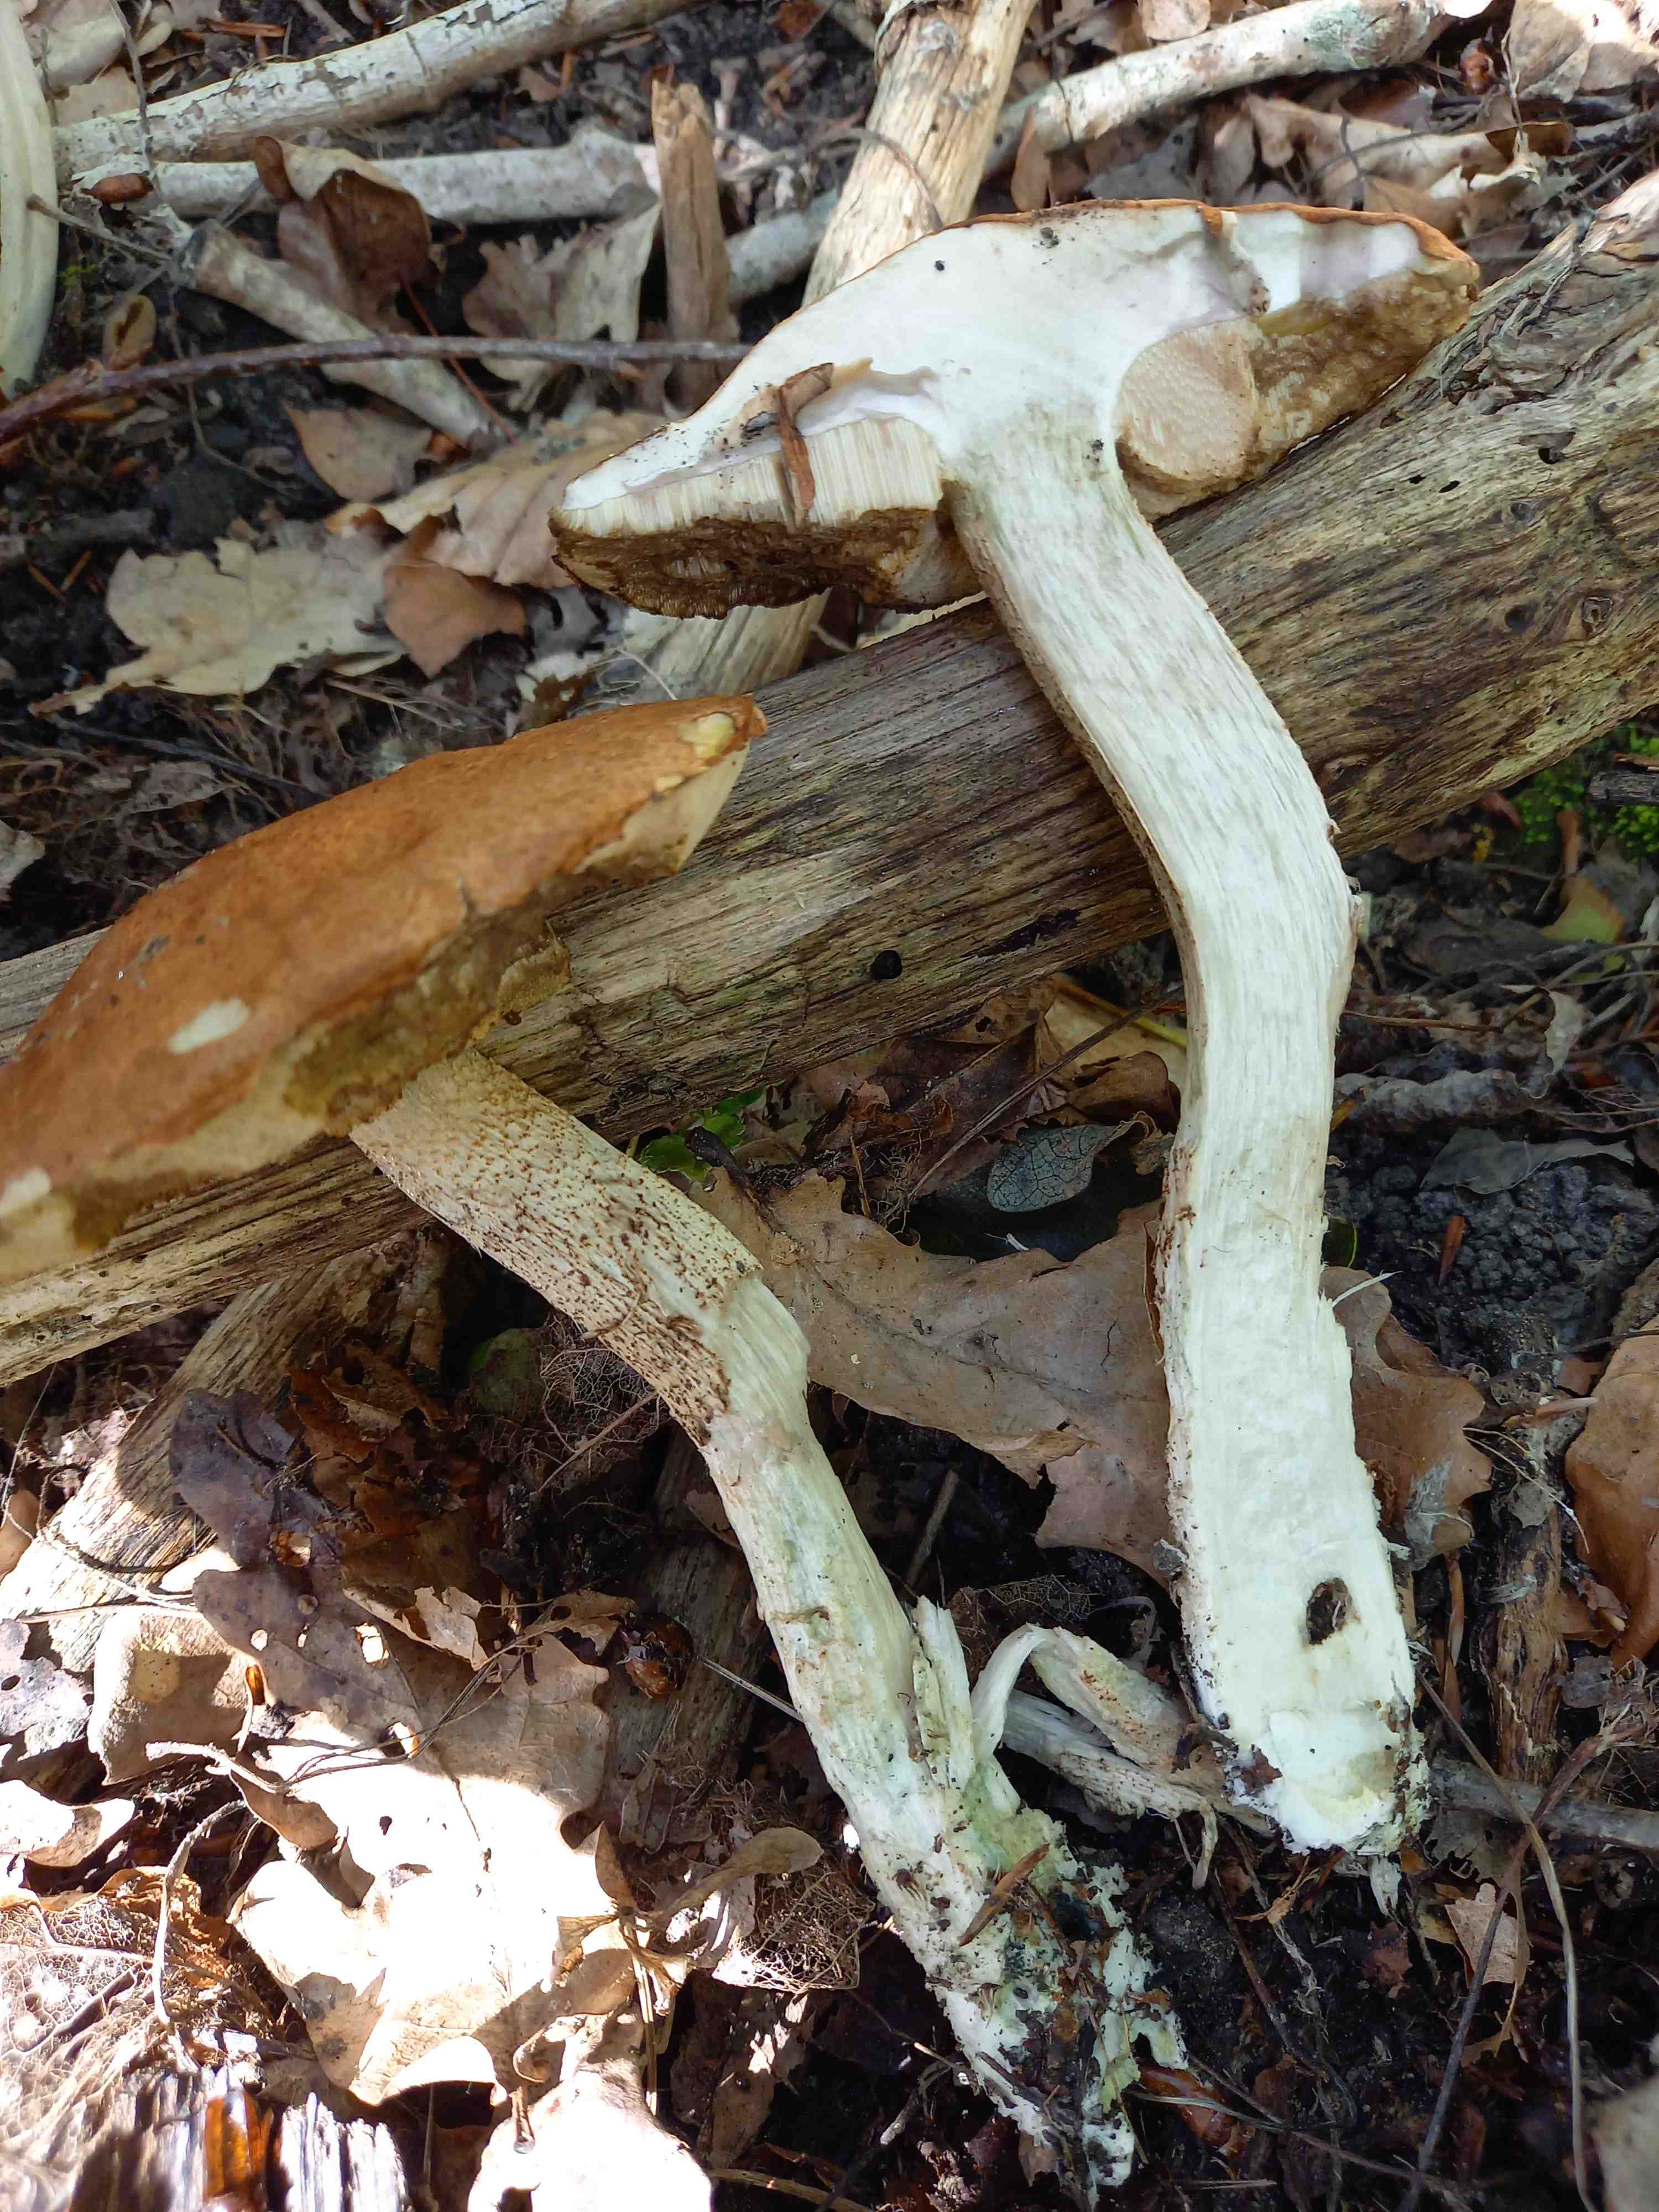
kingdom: Fungi
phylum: Basidiomycota
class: Agaricomycetes
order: Boletales
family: Boletaceae
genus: Leccinum
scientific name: Leccinum
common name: skælrørhat
